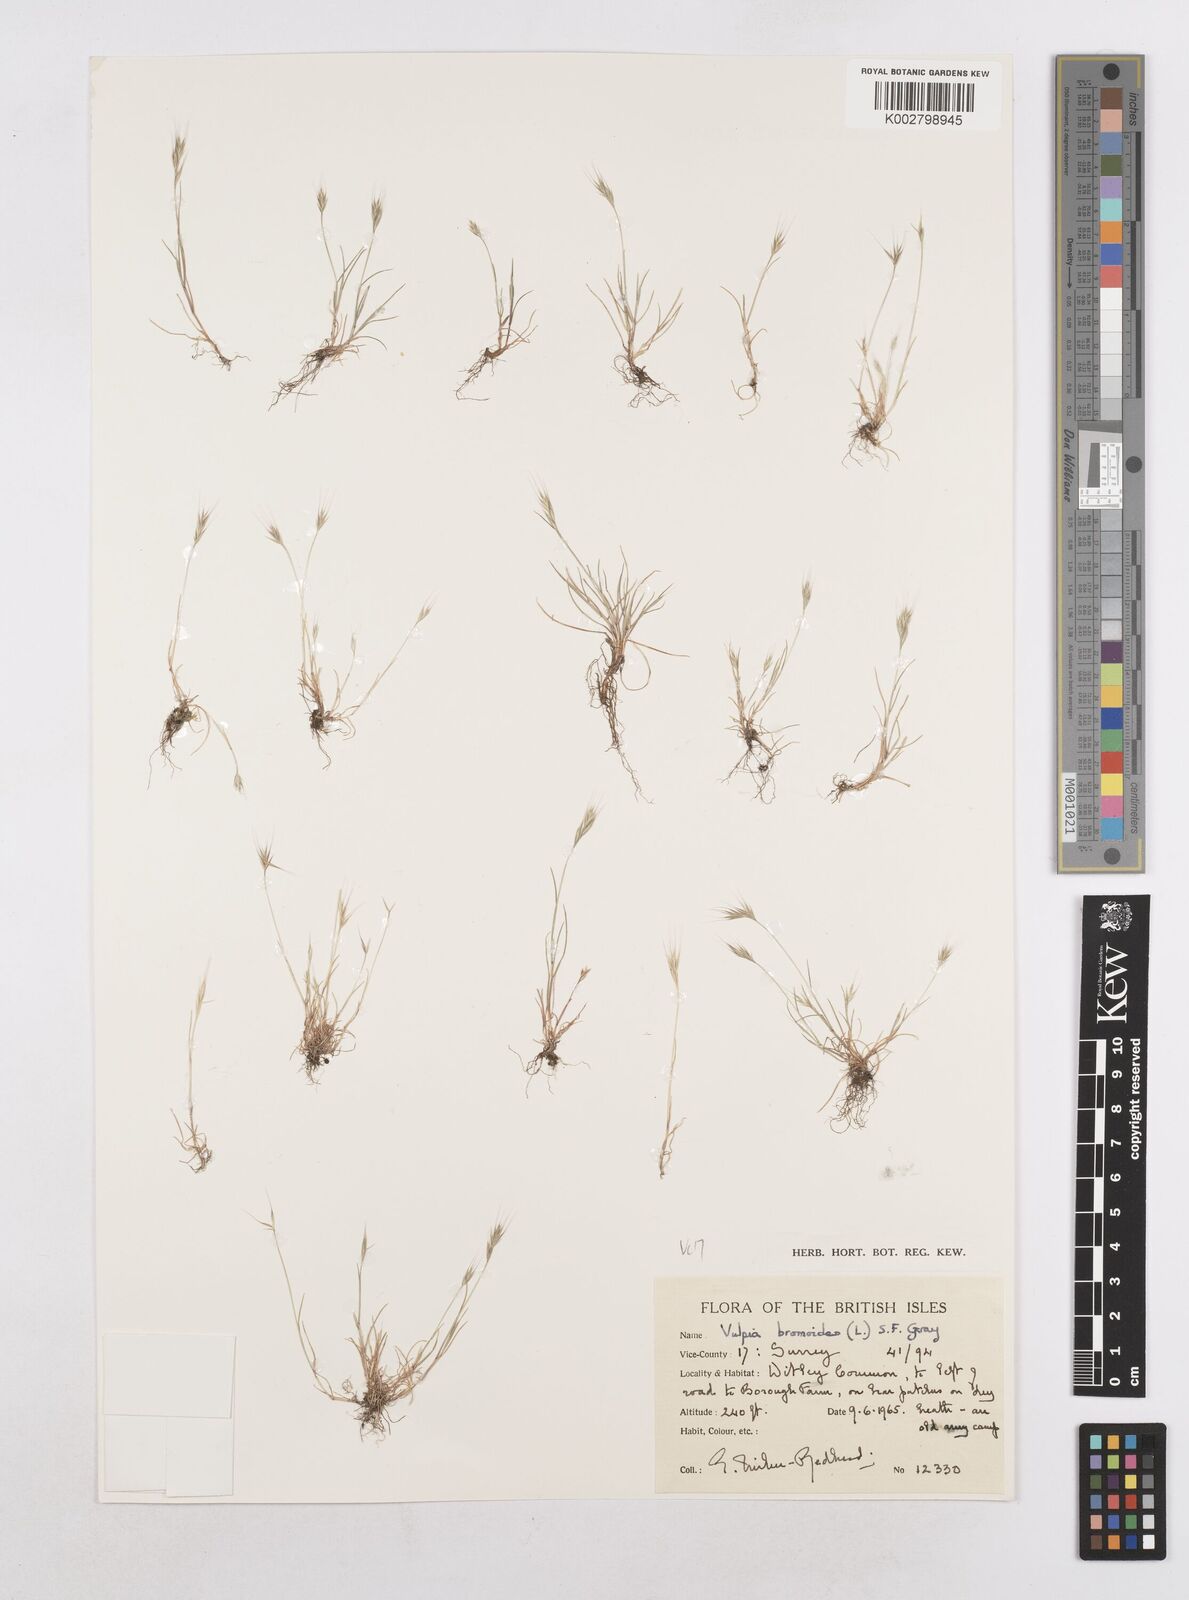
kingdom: Plantae
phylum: Tracheophyta
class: Liliopsida
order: Poales
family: Poaceae
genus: Festuca
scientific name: Festuca bromoides
